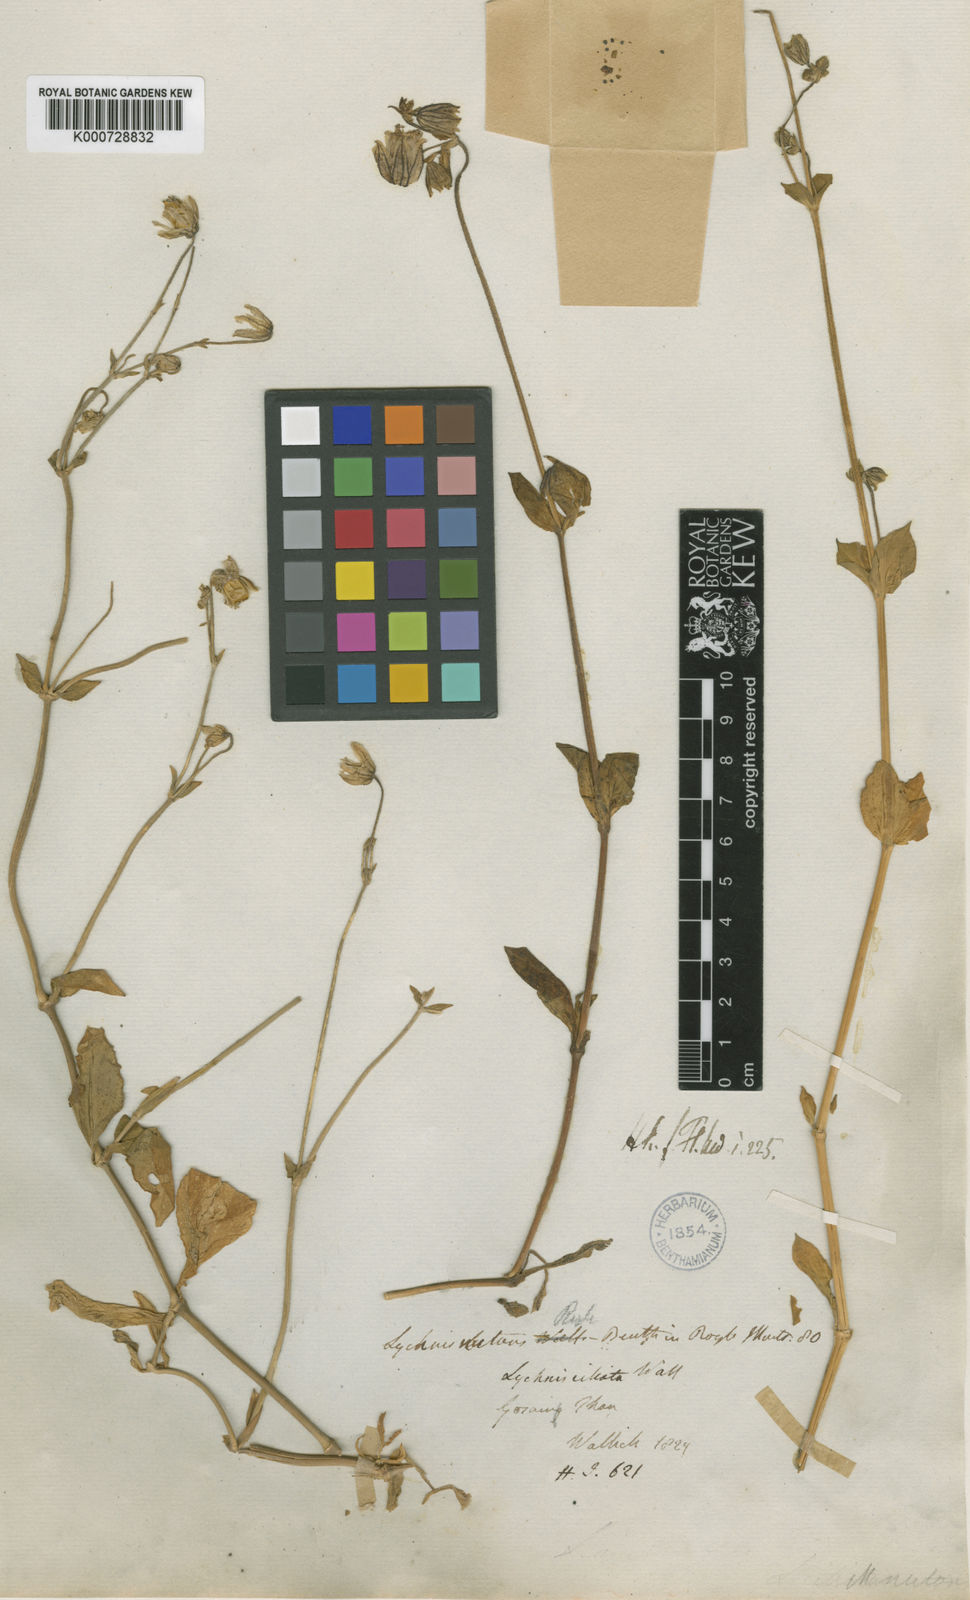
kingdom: Plantae
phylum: Tracheophyta
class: Magnoliopsida
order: Caryophyllales
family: Caryophyllaceae
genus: Silene
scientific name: Silene indica
